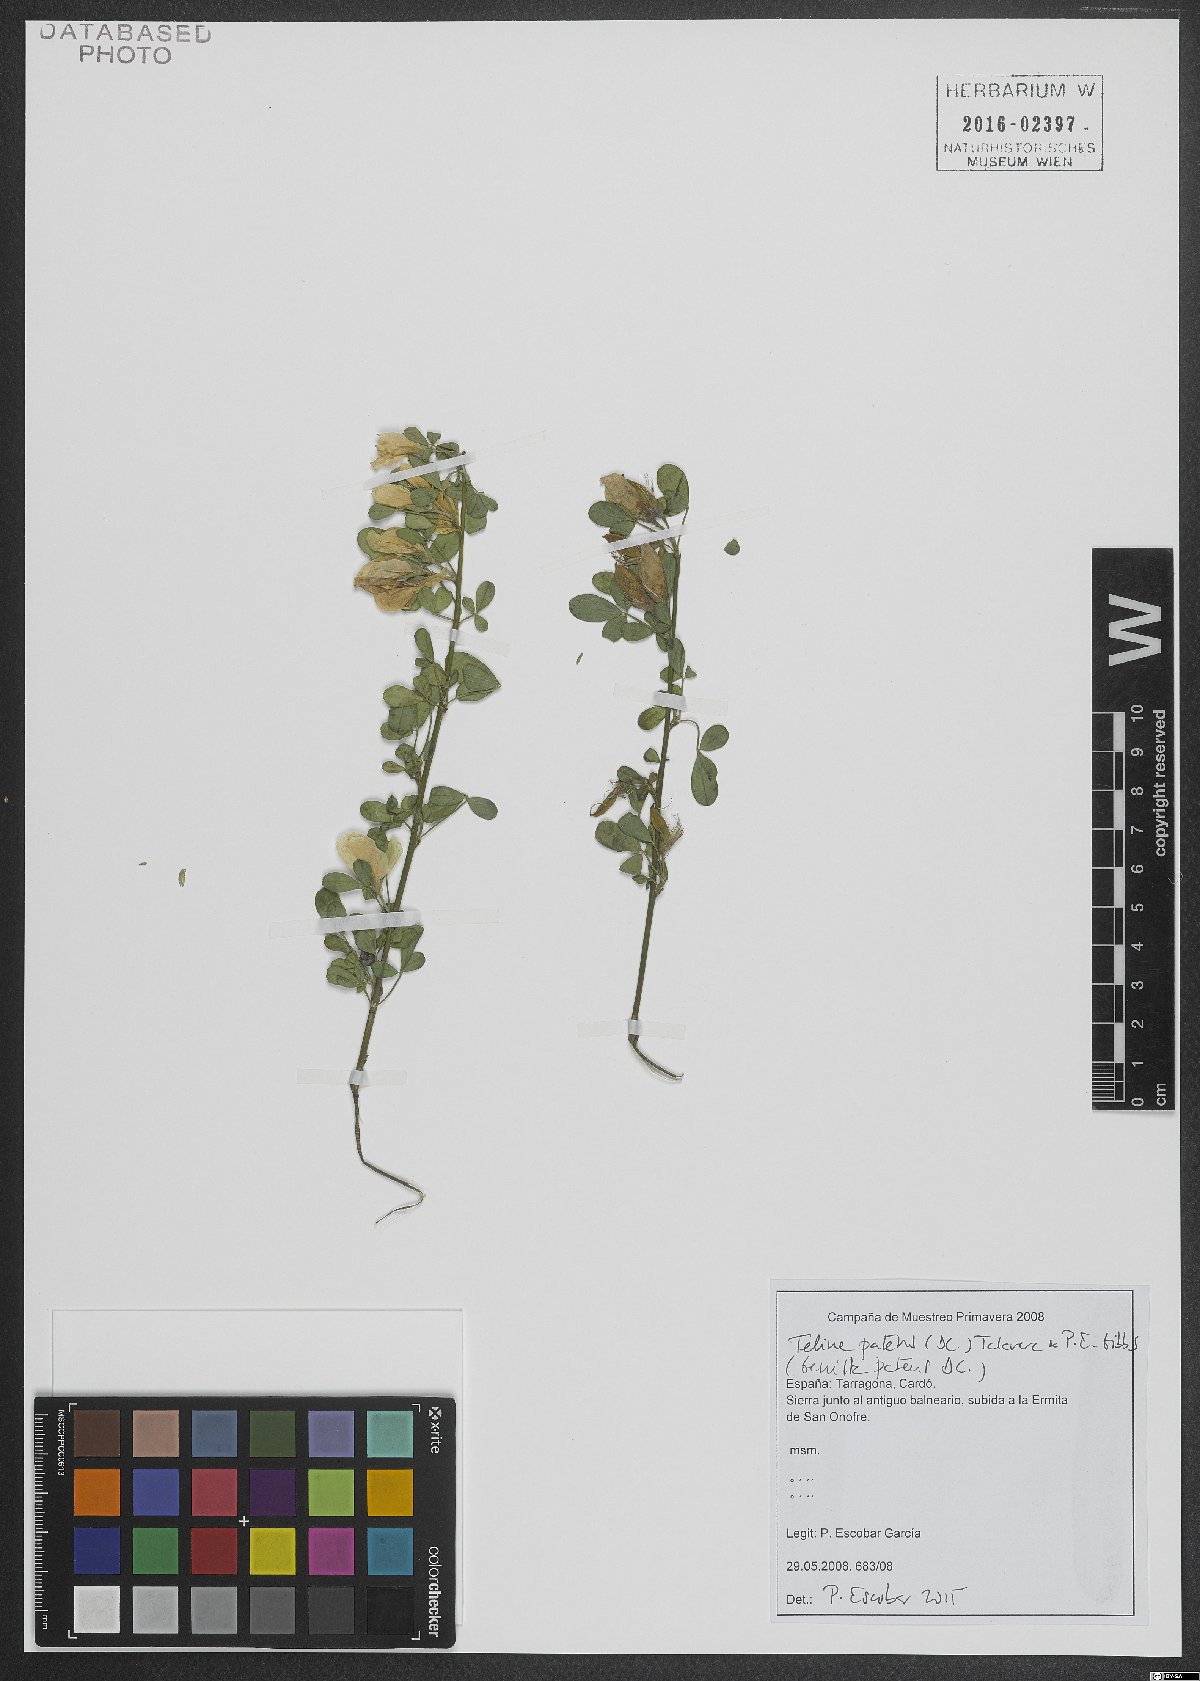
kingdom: Plantae
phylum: Tracheophyta
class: Magnoliopsida
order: Fabales
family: Fabaceae
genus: Genista
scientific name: Genista patens
